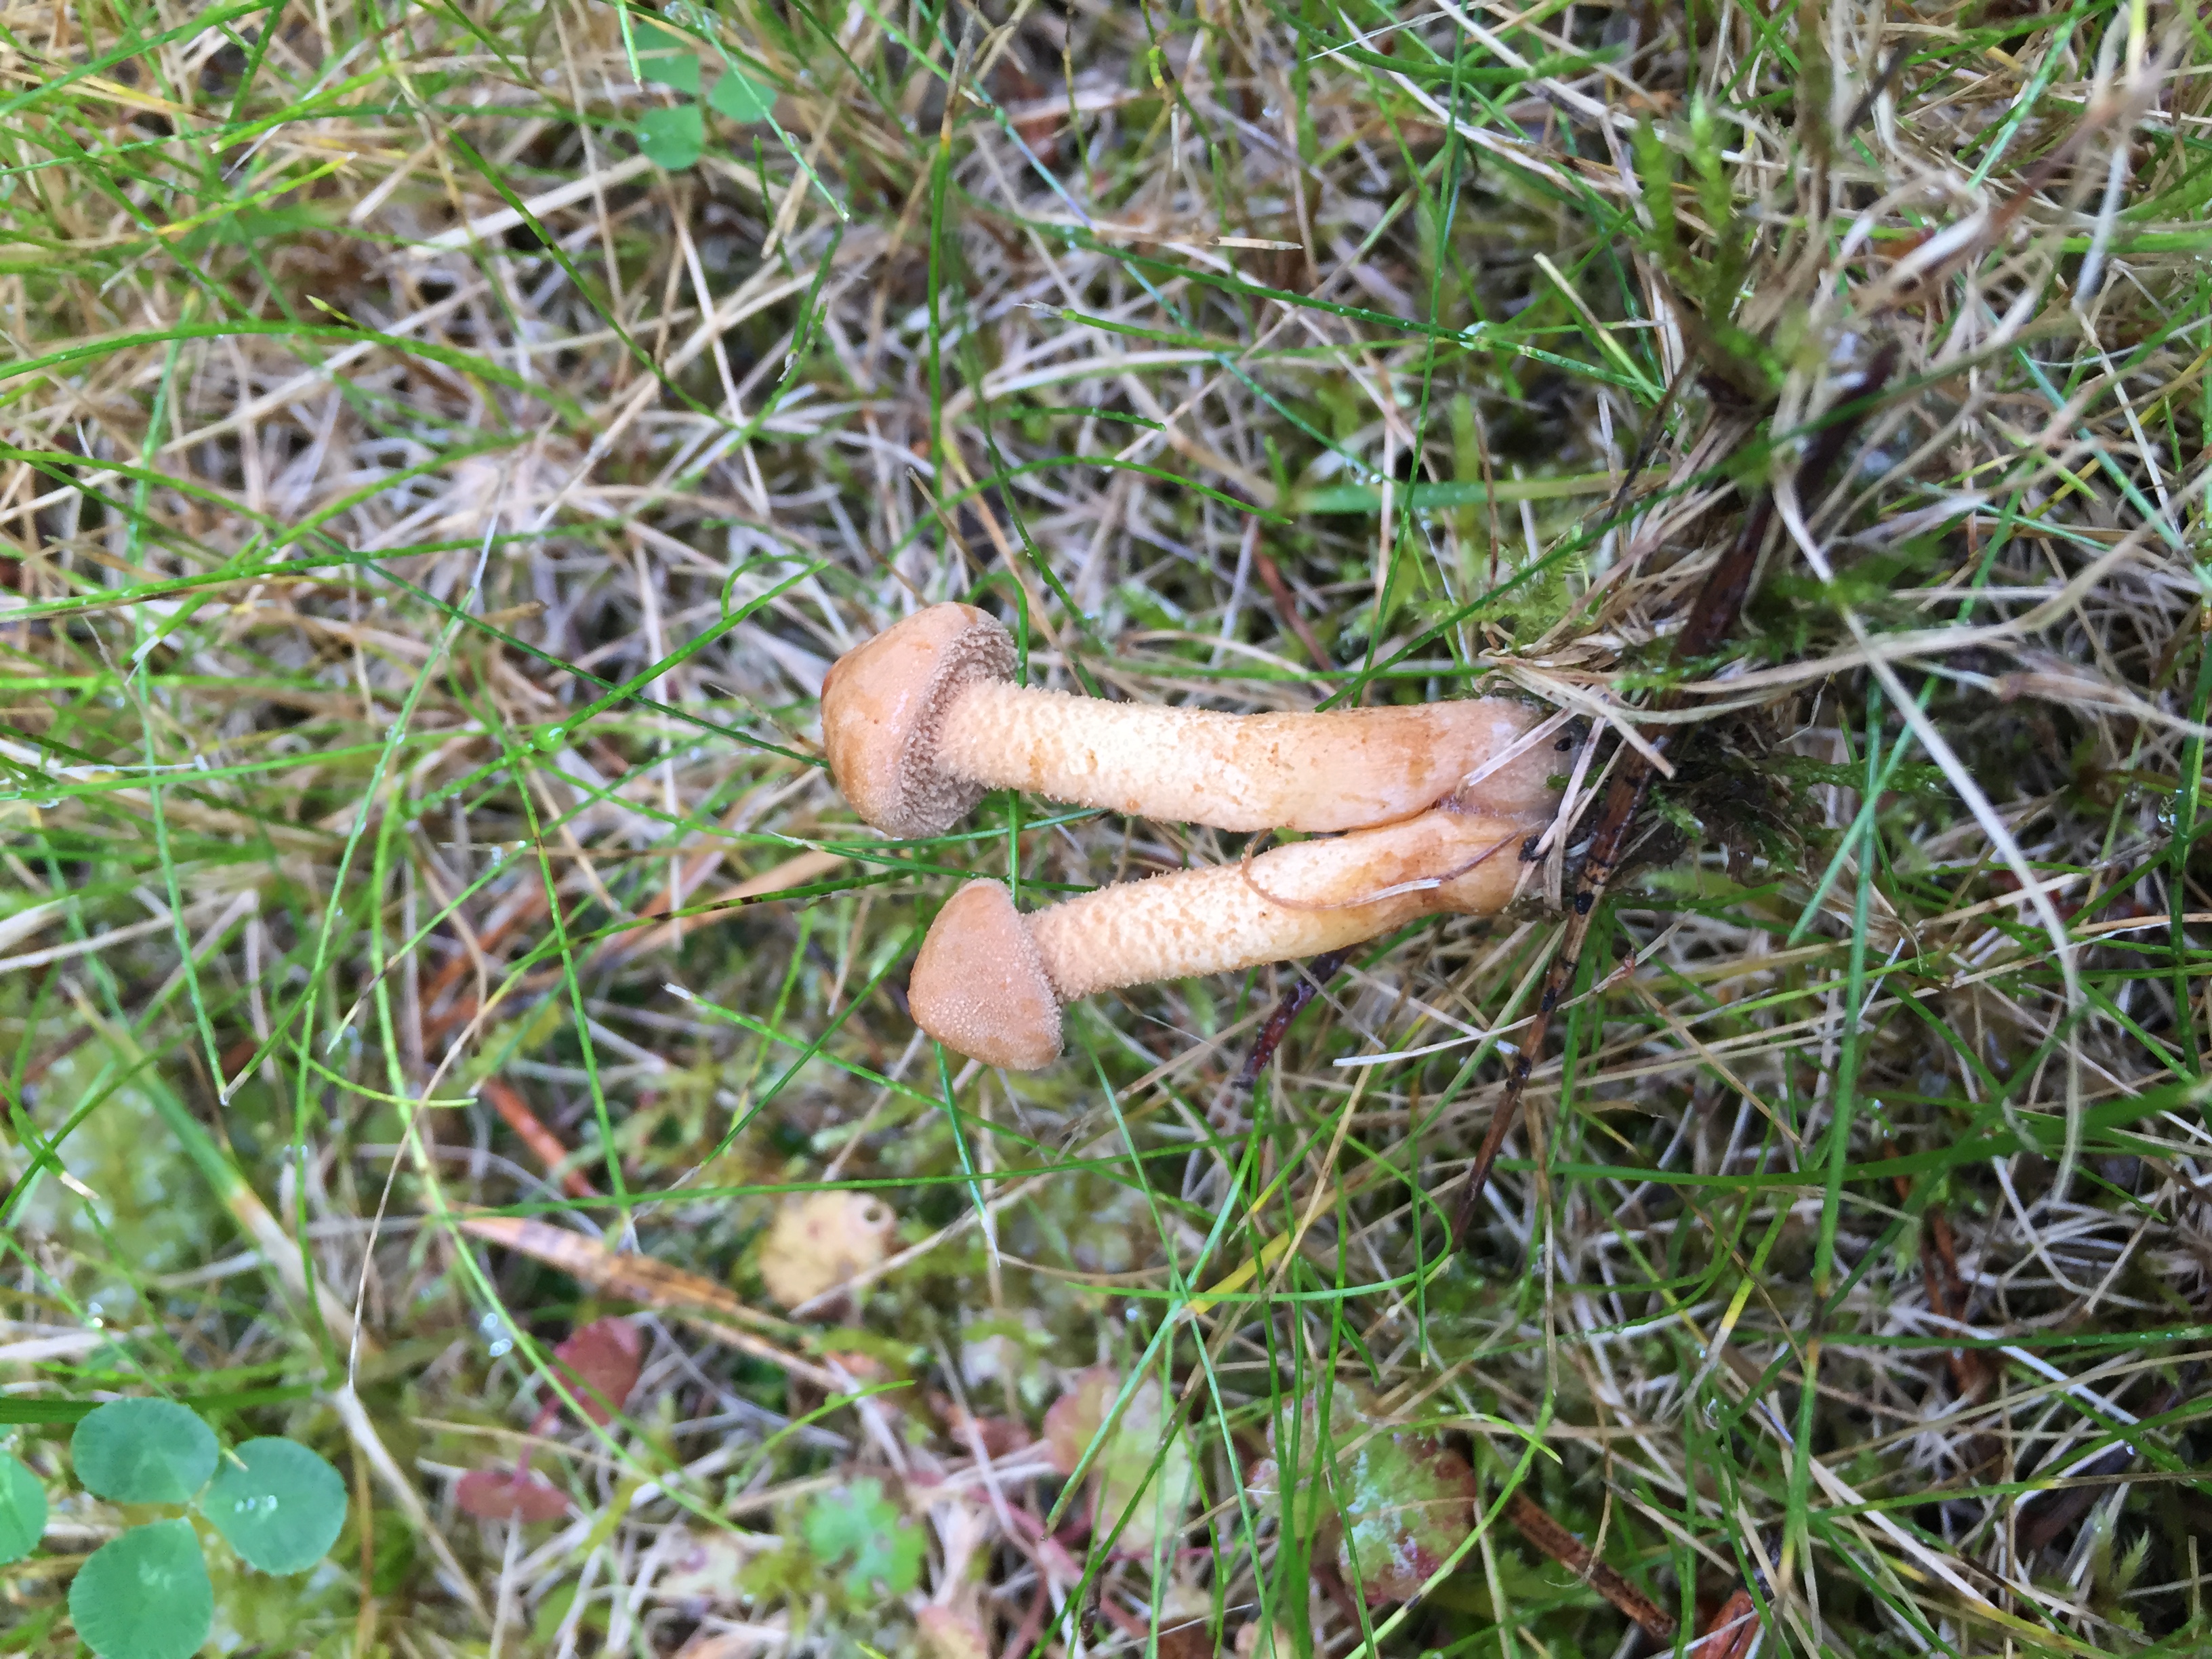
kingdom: Fungi
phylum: Basidiomycota
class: Agaricomycetes
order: Agaricales
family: Agaricaceae
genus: Cystodermella
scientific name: Cystodermella granulosa
